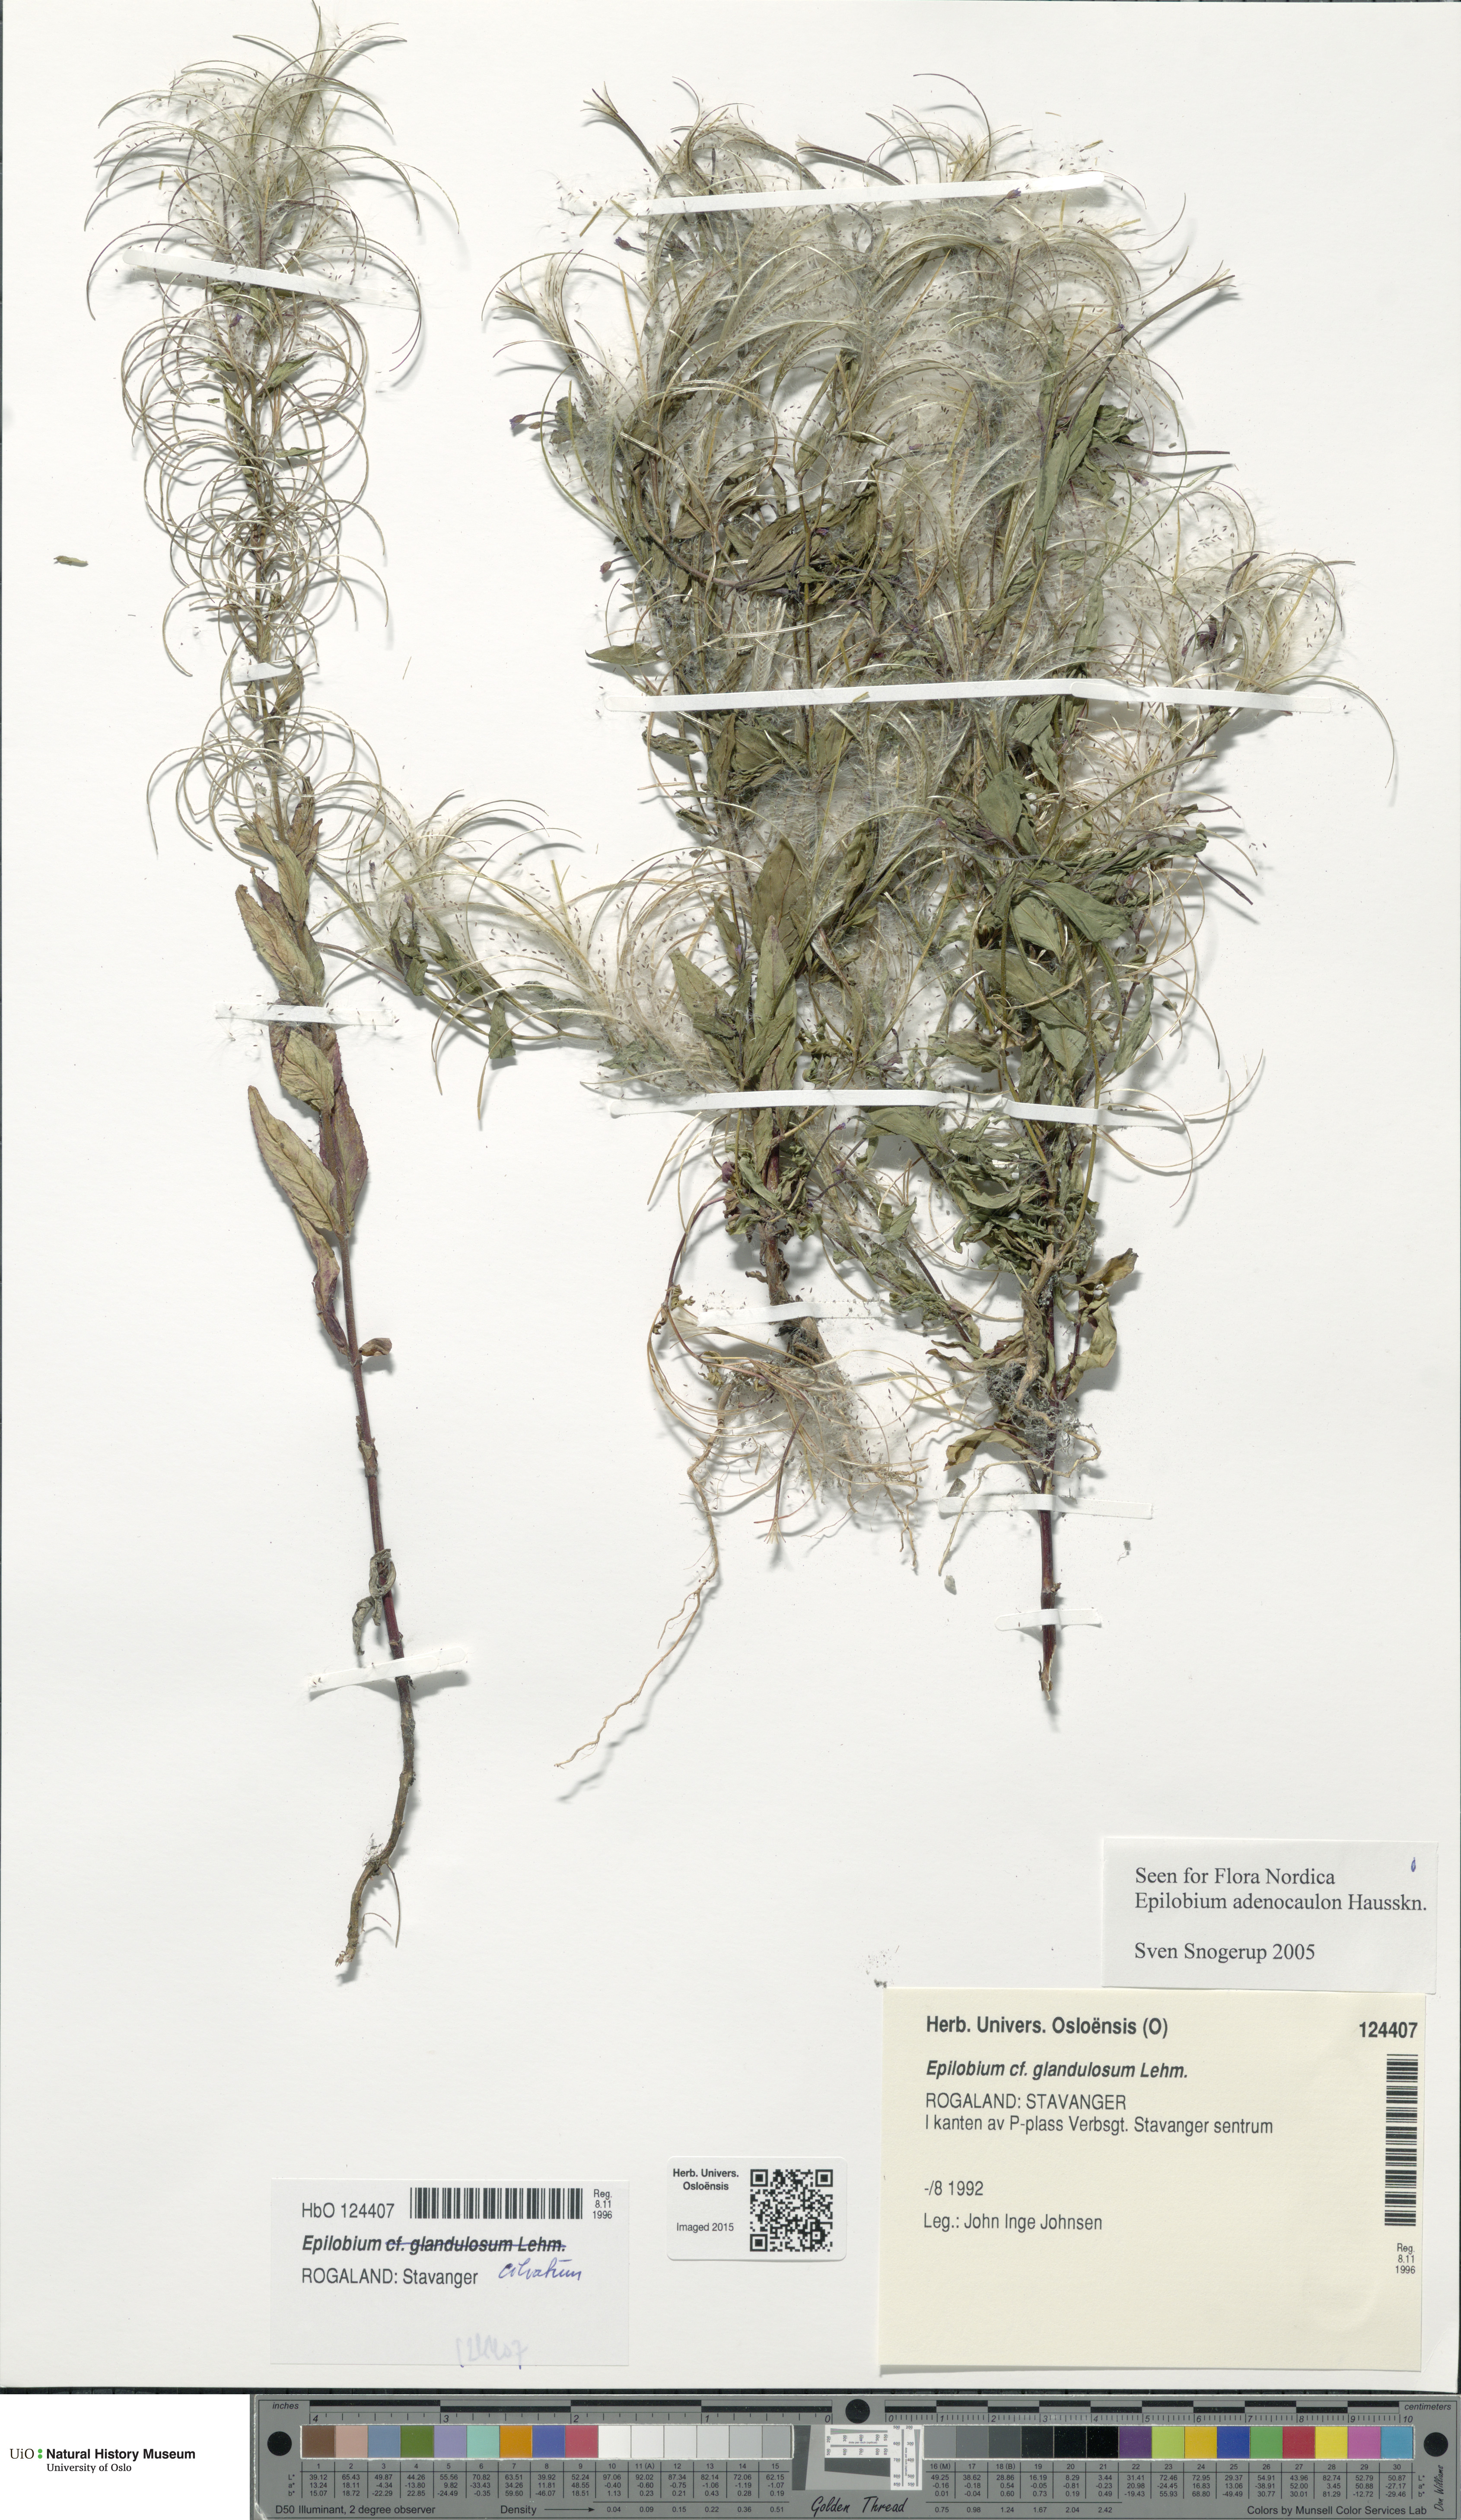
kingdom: Plantae
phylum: Tracheophyta
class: Magnoliopsida
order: Myrtales
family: Onagraceae
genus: Epilobium
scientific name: Epilobium ciliatum
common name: American willowherb
